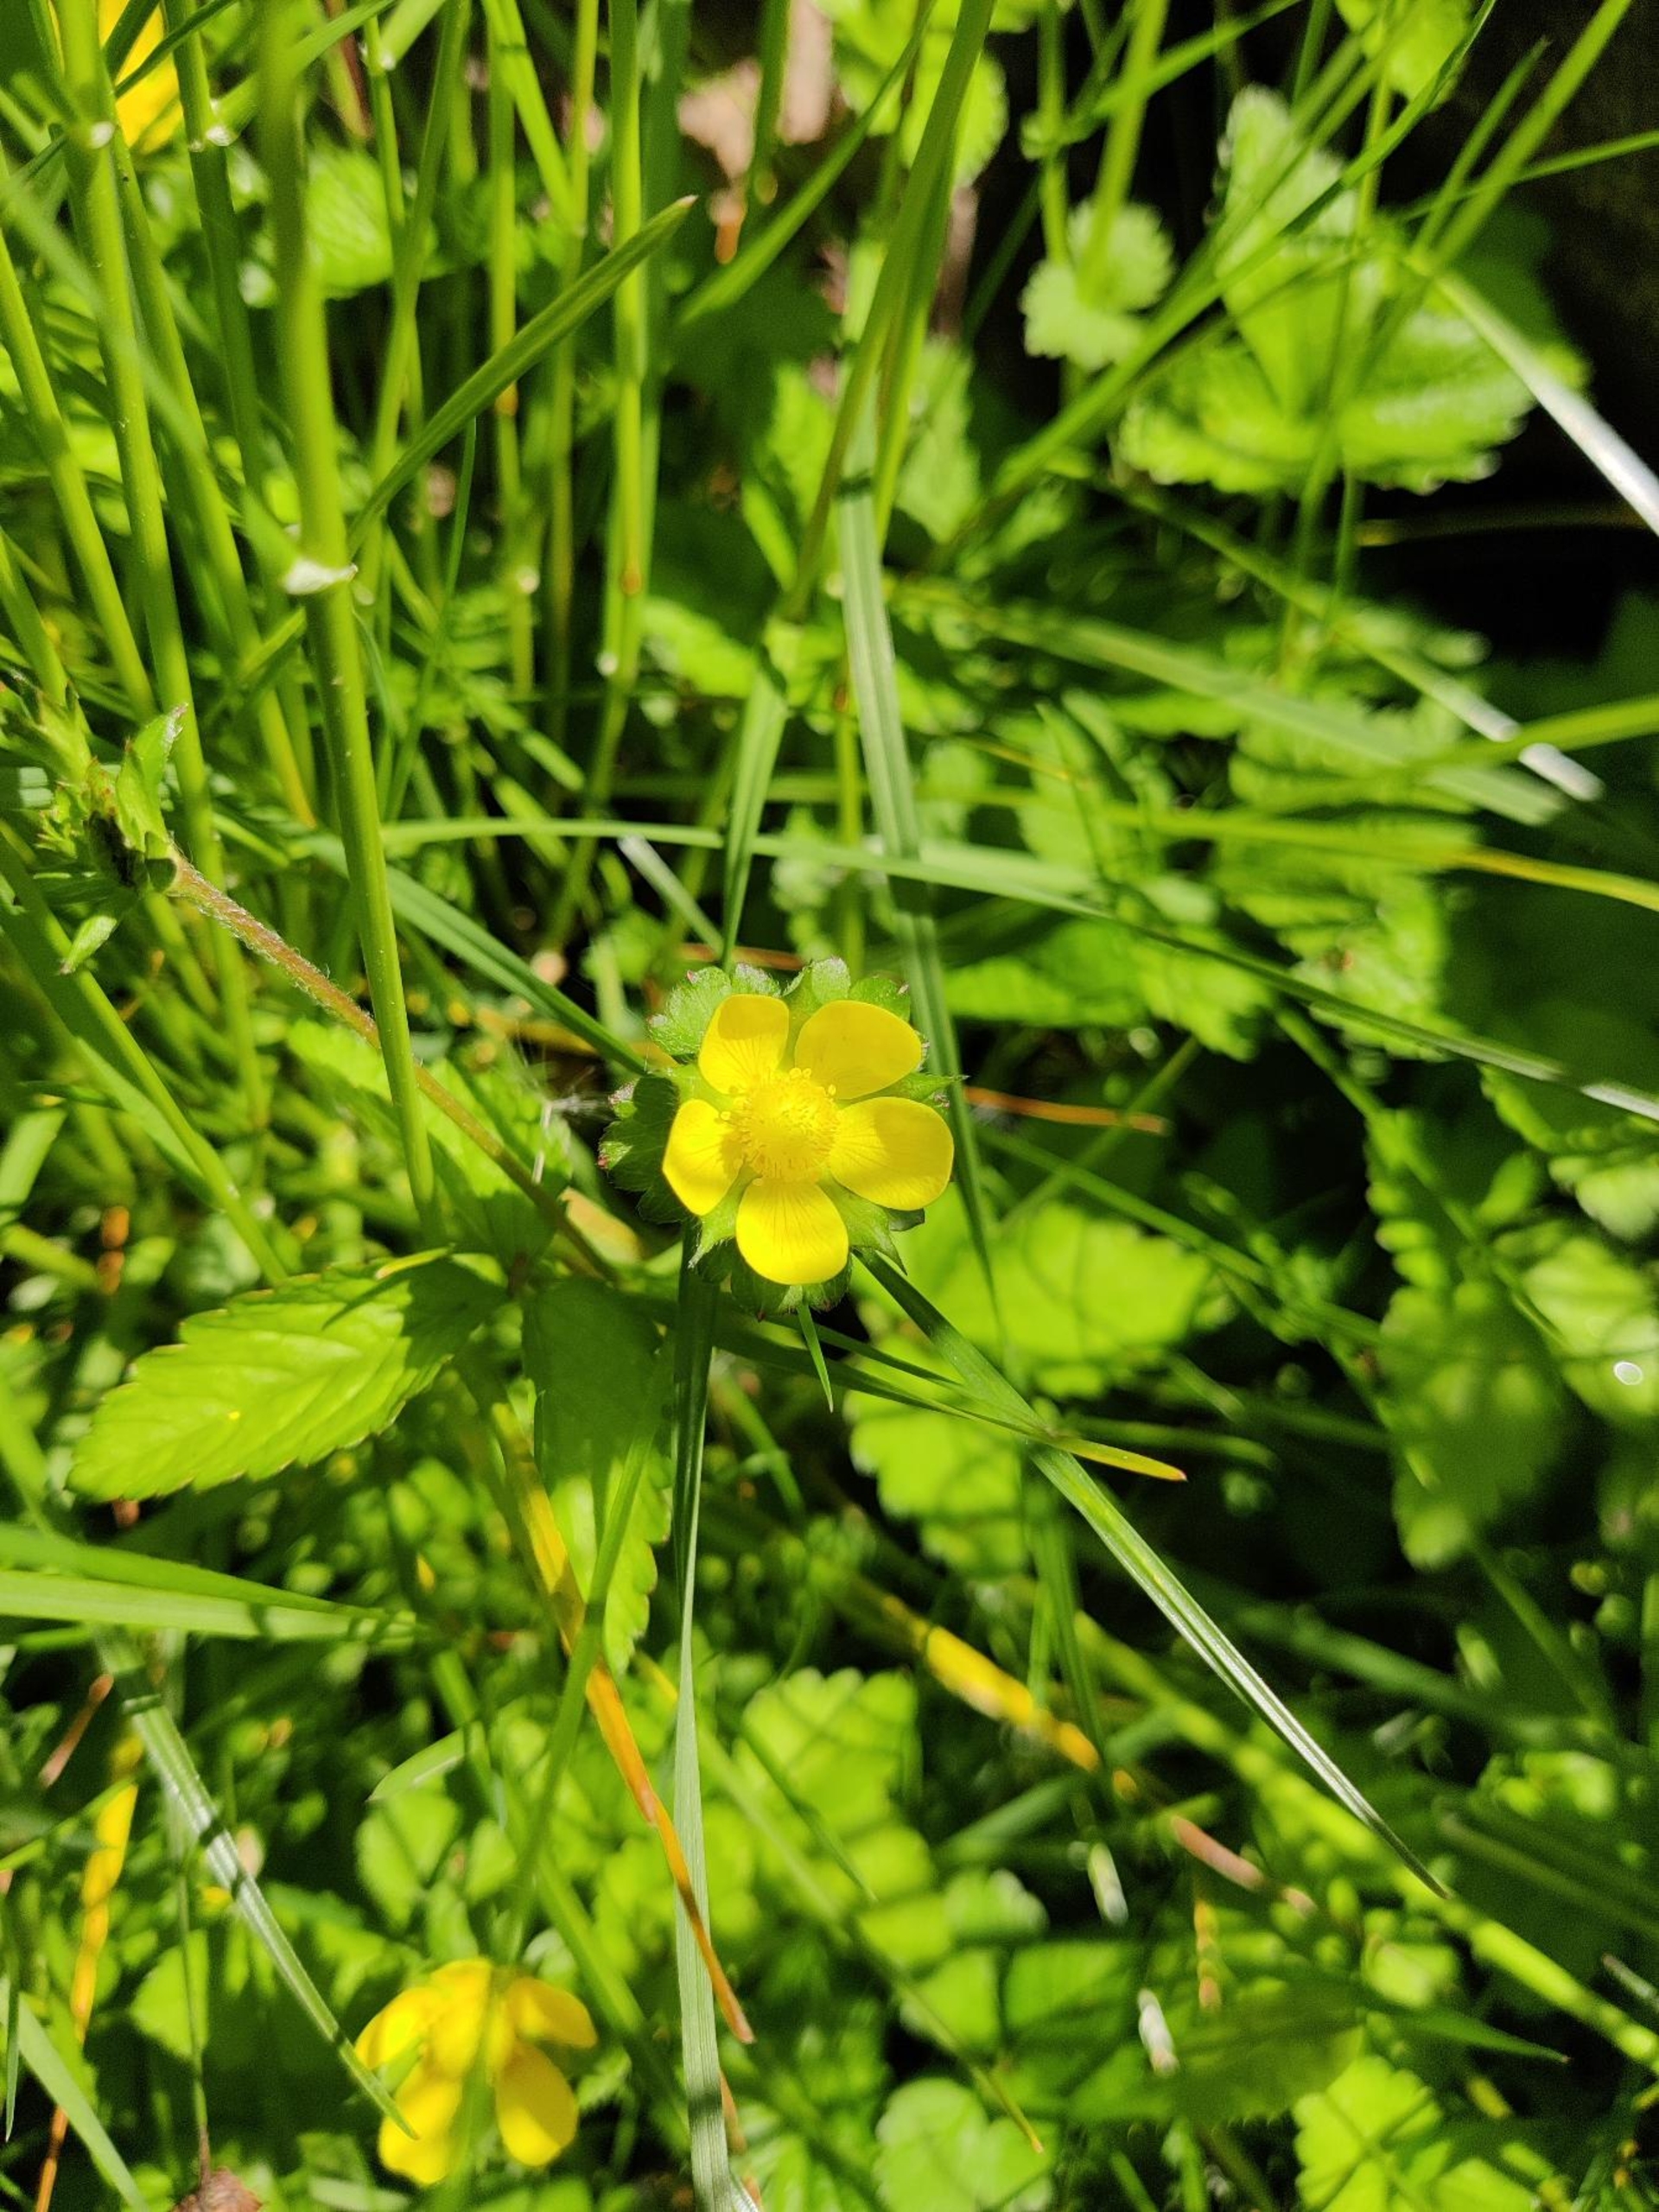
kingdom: Plantae
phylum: Tracheophyta
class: Magnoliopsida
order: Rosales
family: Rosaceae
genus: Potentilla
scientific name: Potentilla indica
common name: Indisk jordbær
